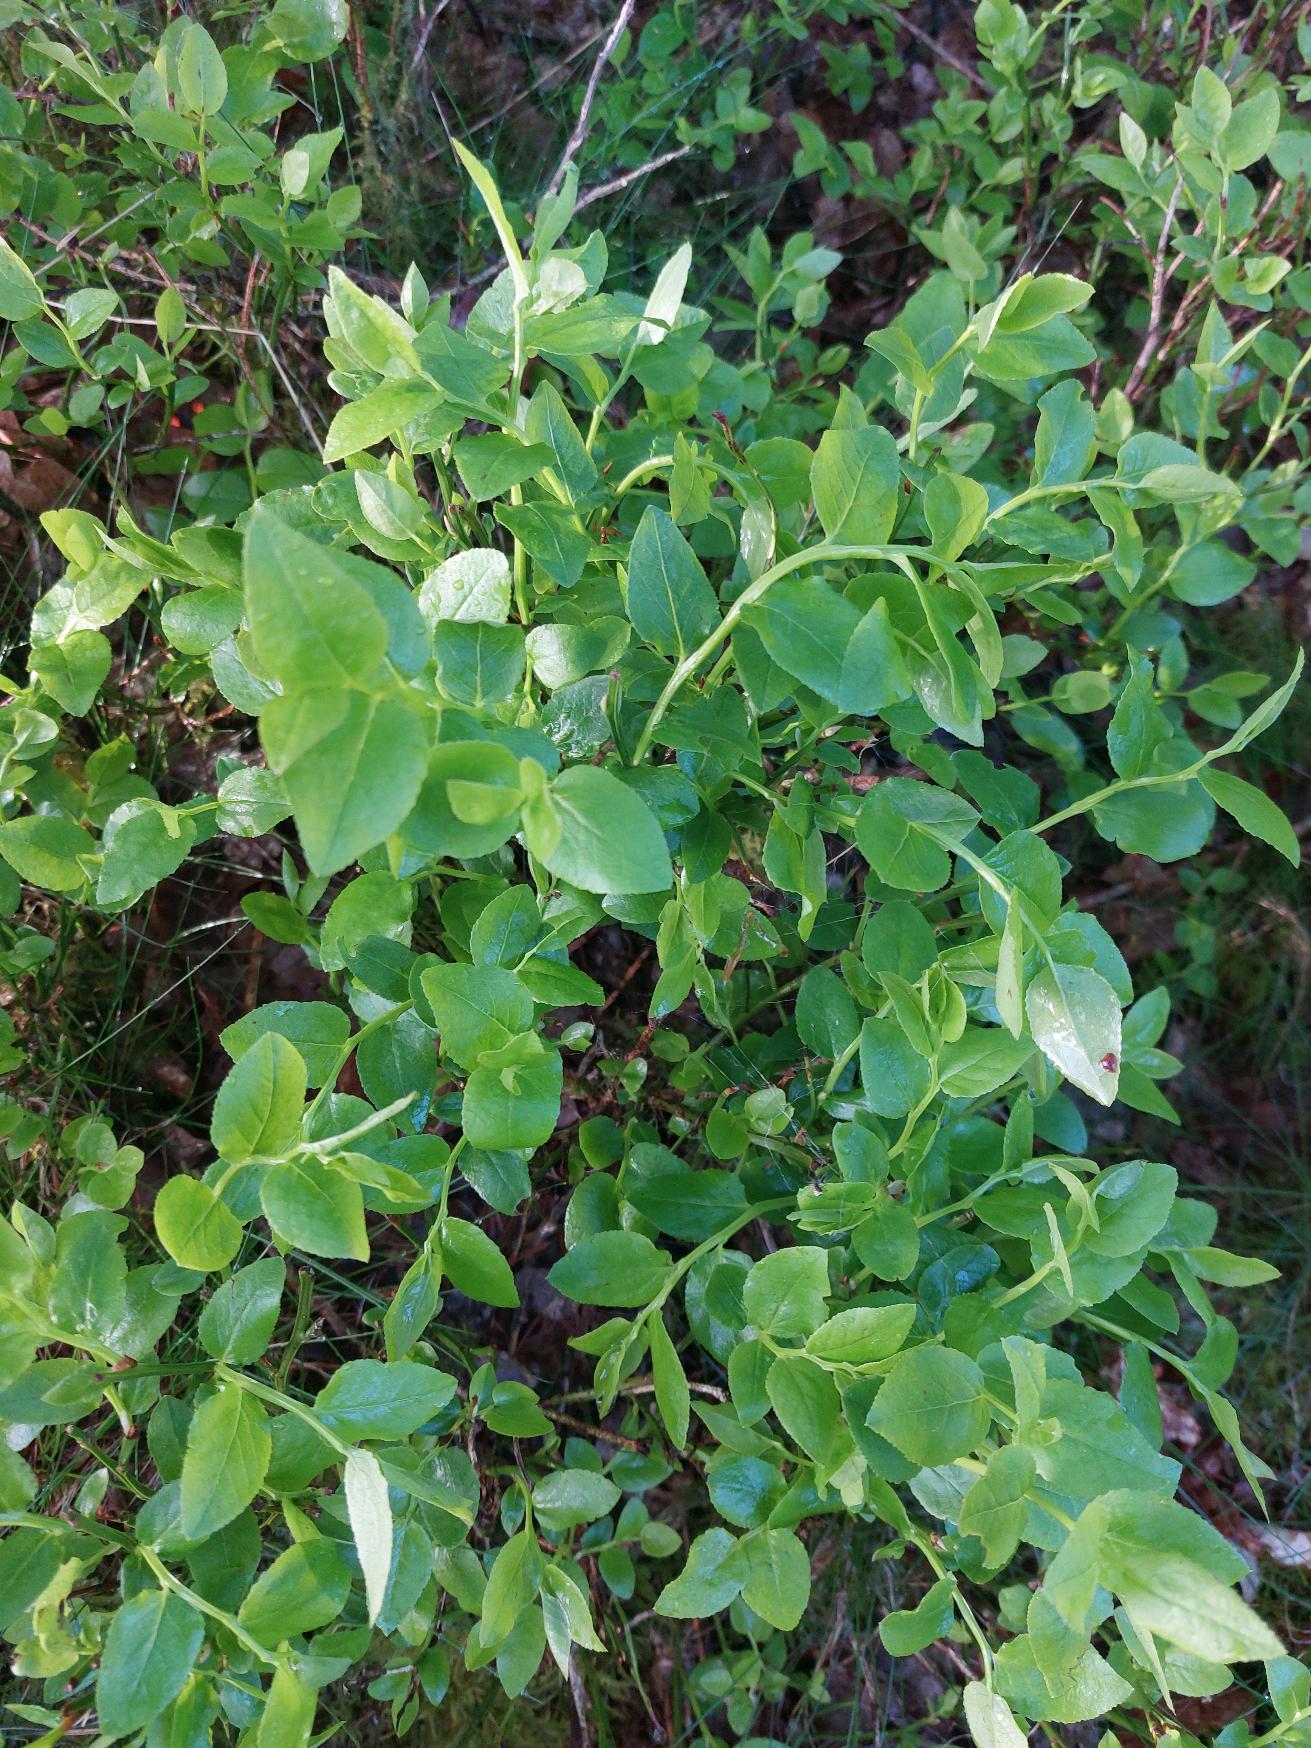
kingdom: Plantae
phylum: Tracheophyta
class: Magnoliopsida
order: Ericales
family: Ericaceae
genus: Vaccinium
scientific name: Vaccinium myrtillus
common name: Blåbær
